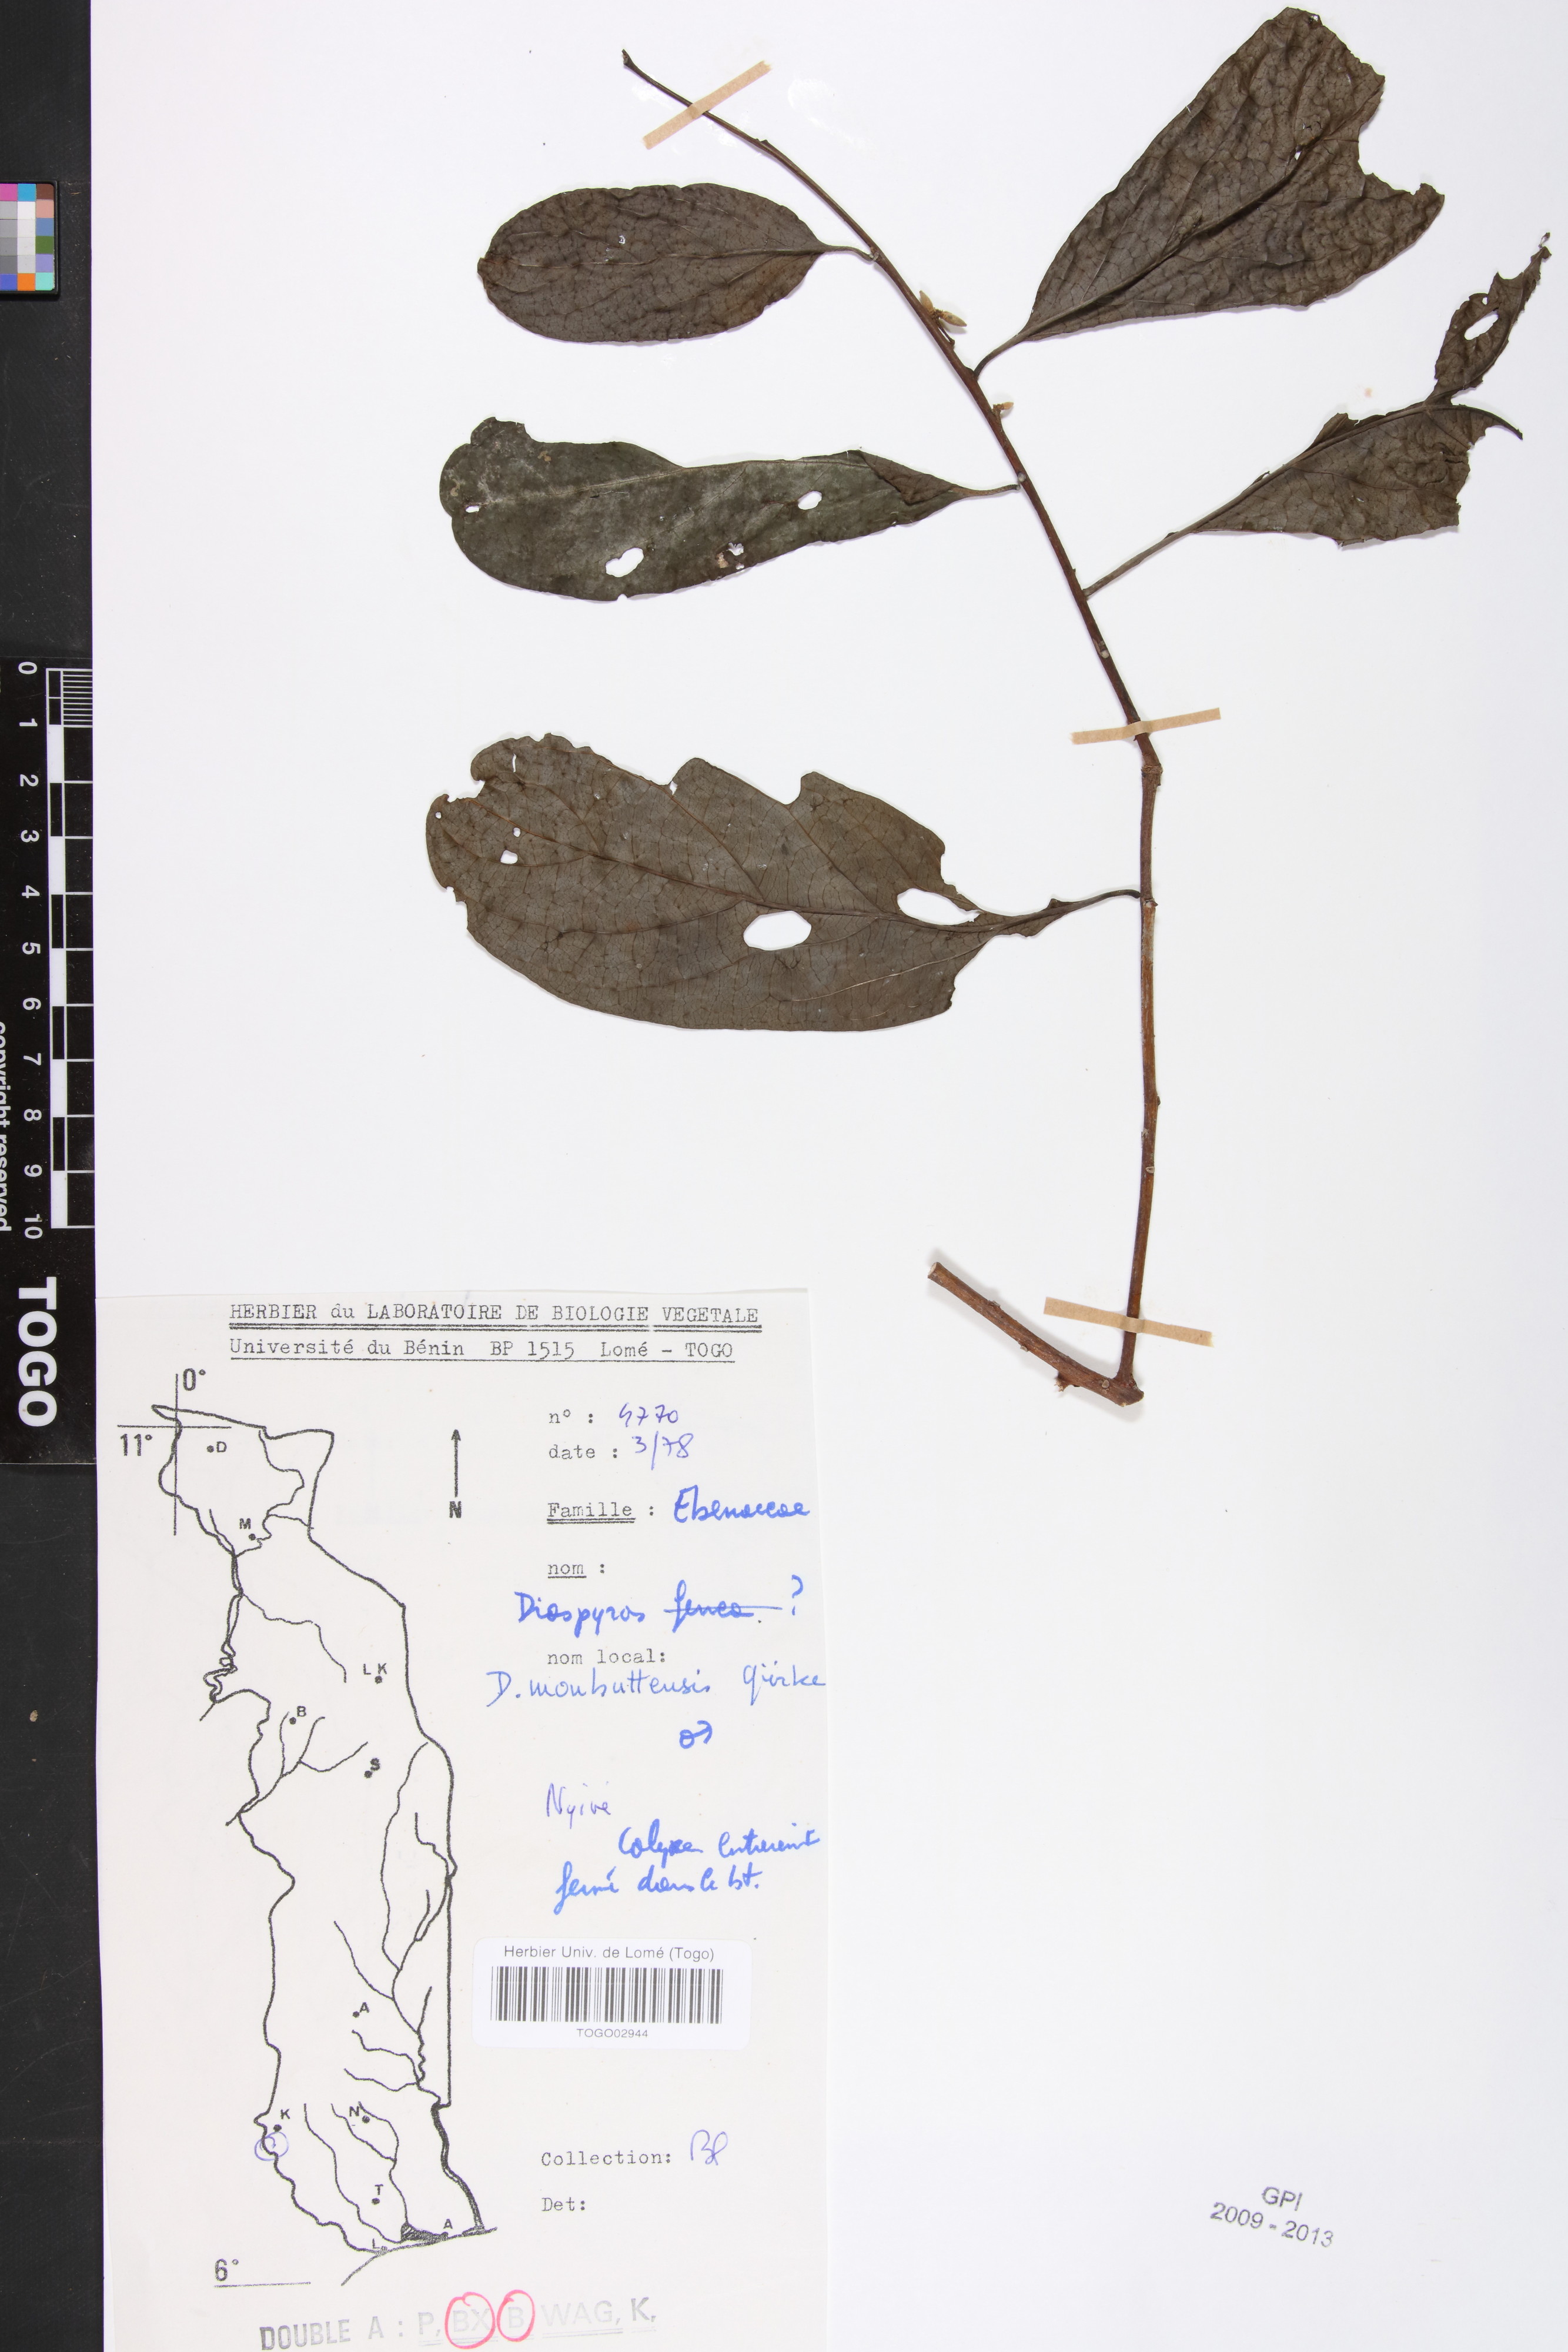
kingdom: Plantae
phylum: Tracheophyta
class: Magnoliopsida
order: Ericales
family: Ebenaceae
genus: Diospyros
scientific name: Diospyros monbuttensis
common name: Walking-stick ebony
